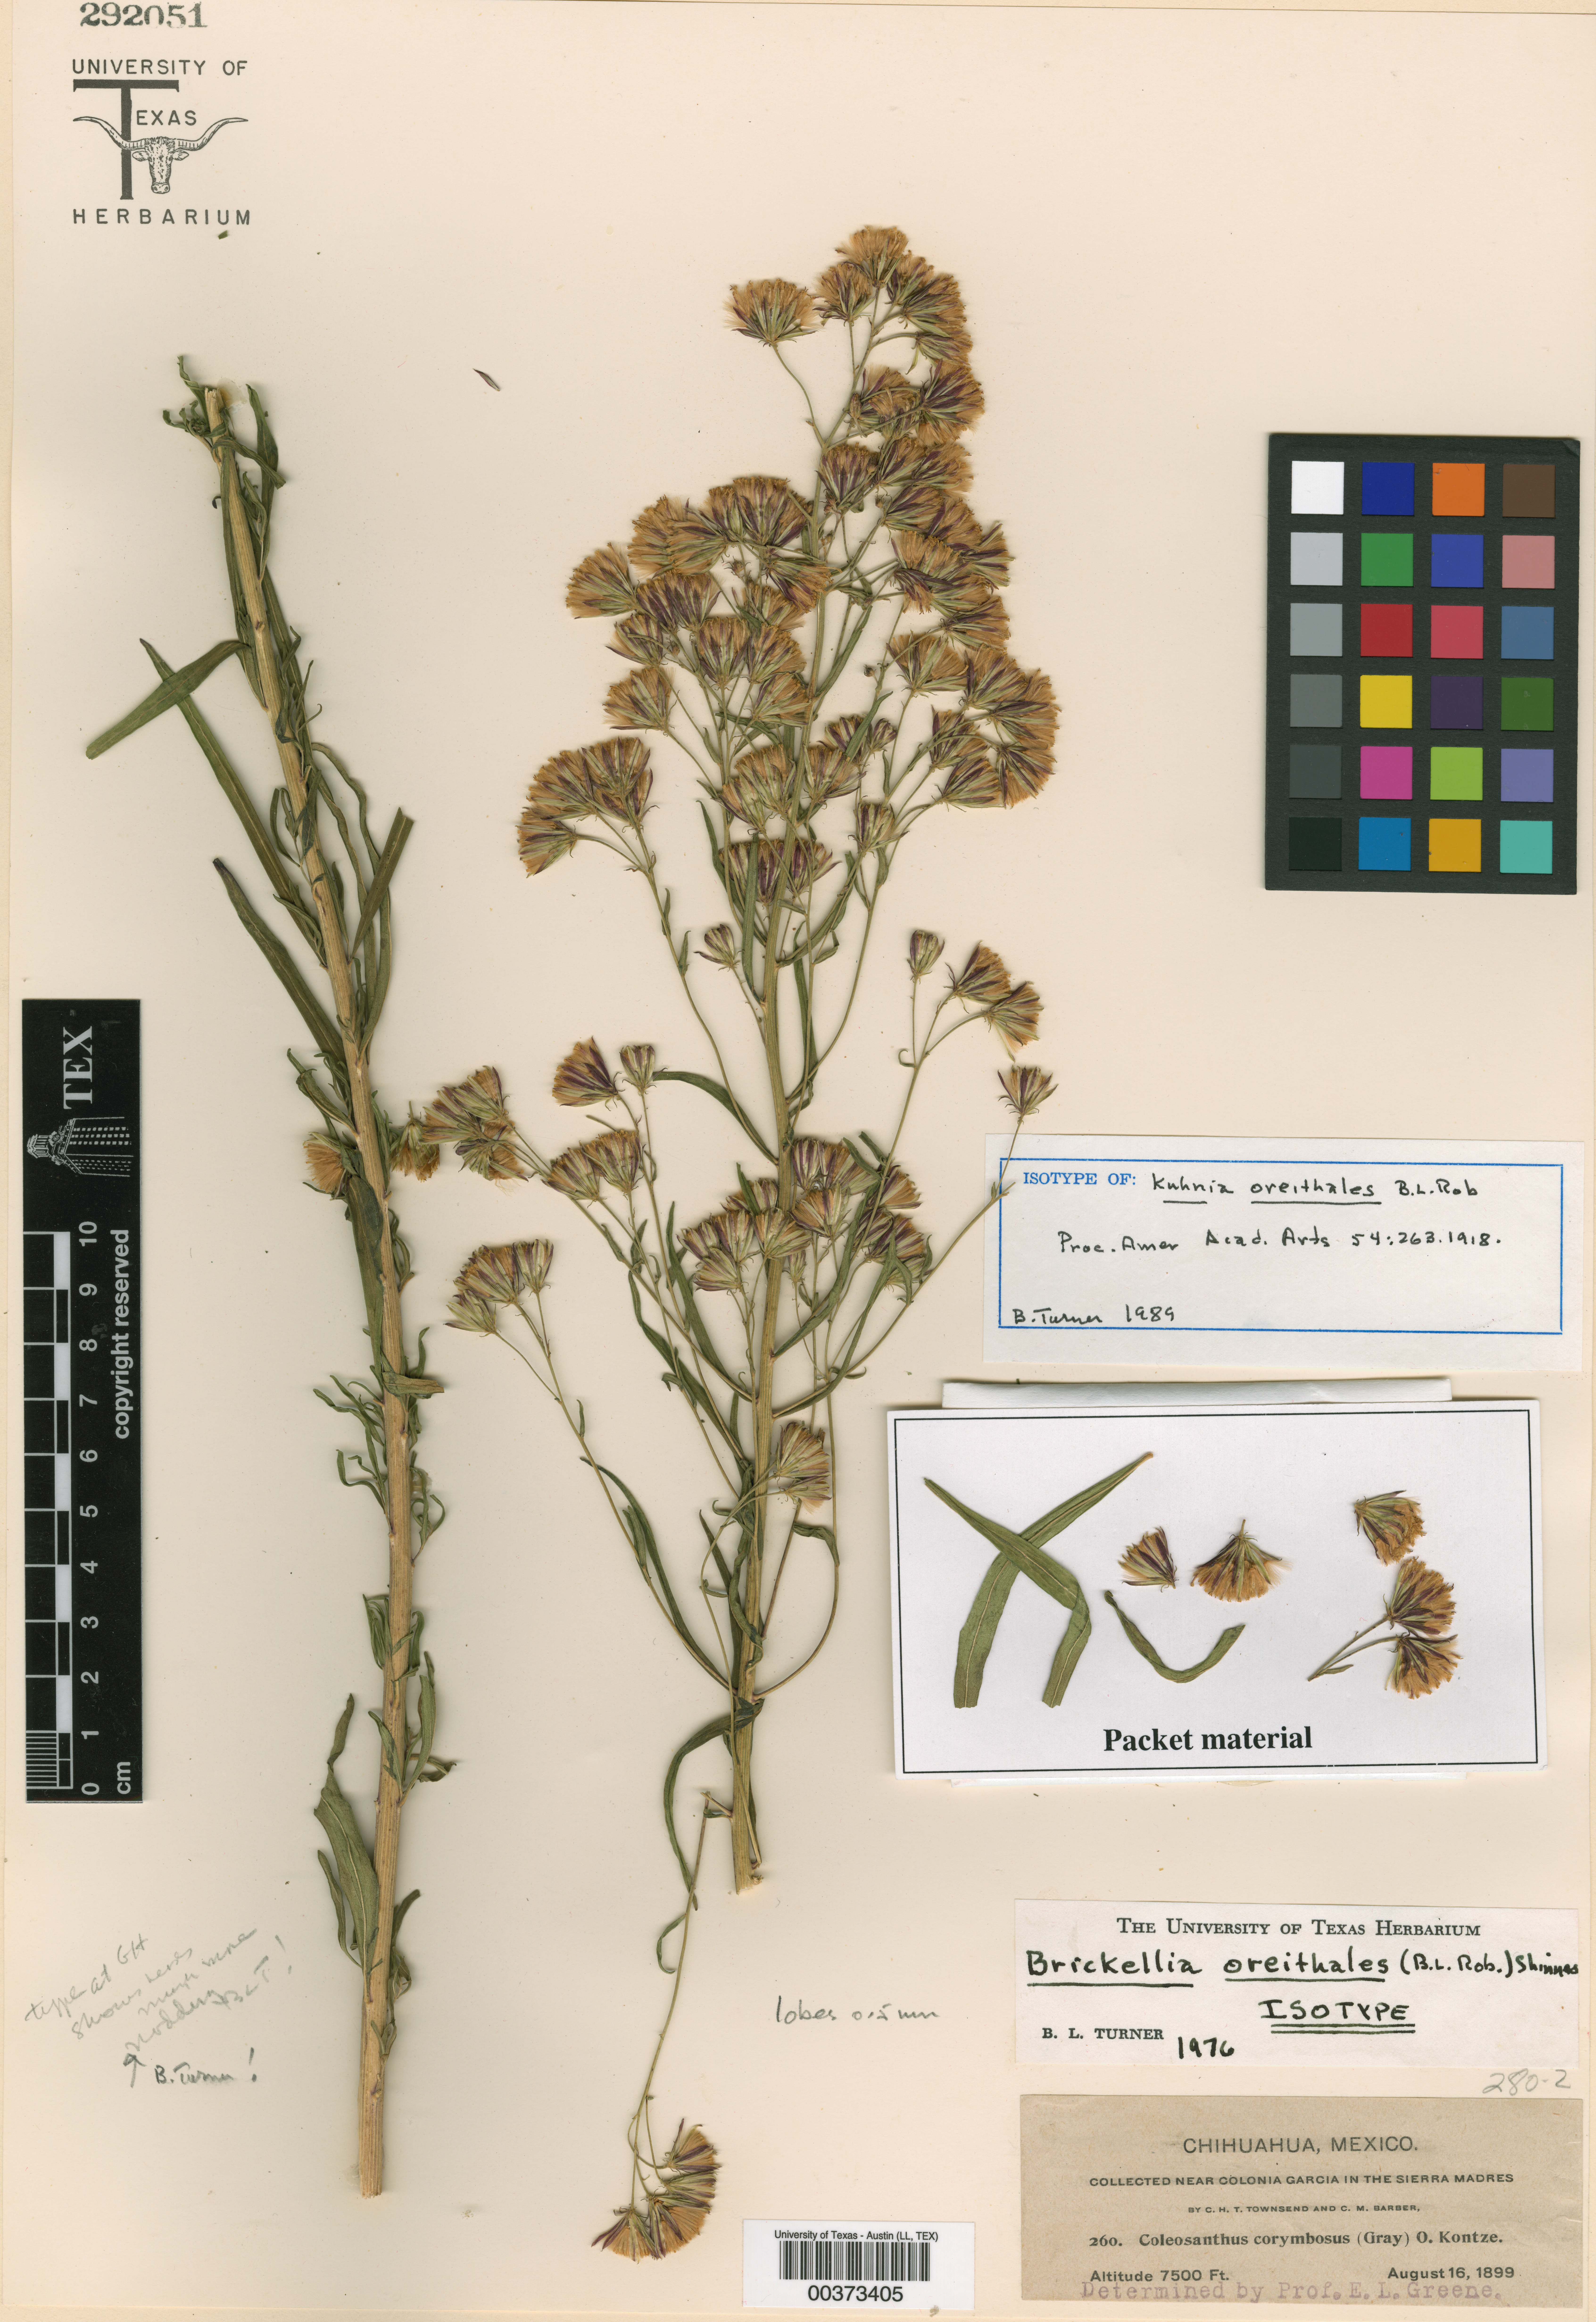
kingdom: Plantae
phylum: Tracheophyta
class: Magnoliopsida
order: Asterales
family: Asteraceae
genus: Brickellia
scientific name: Brickellia oreithales
